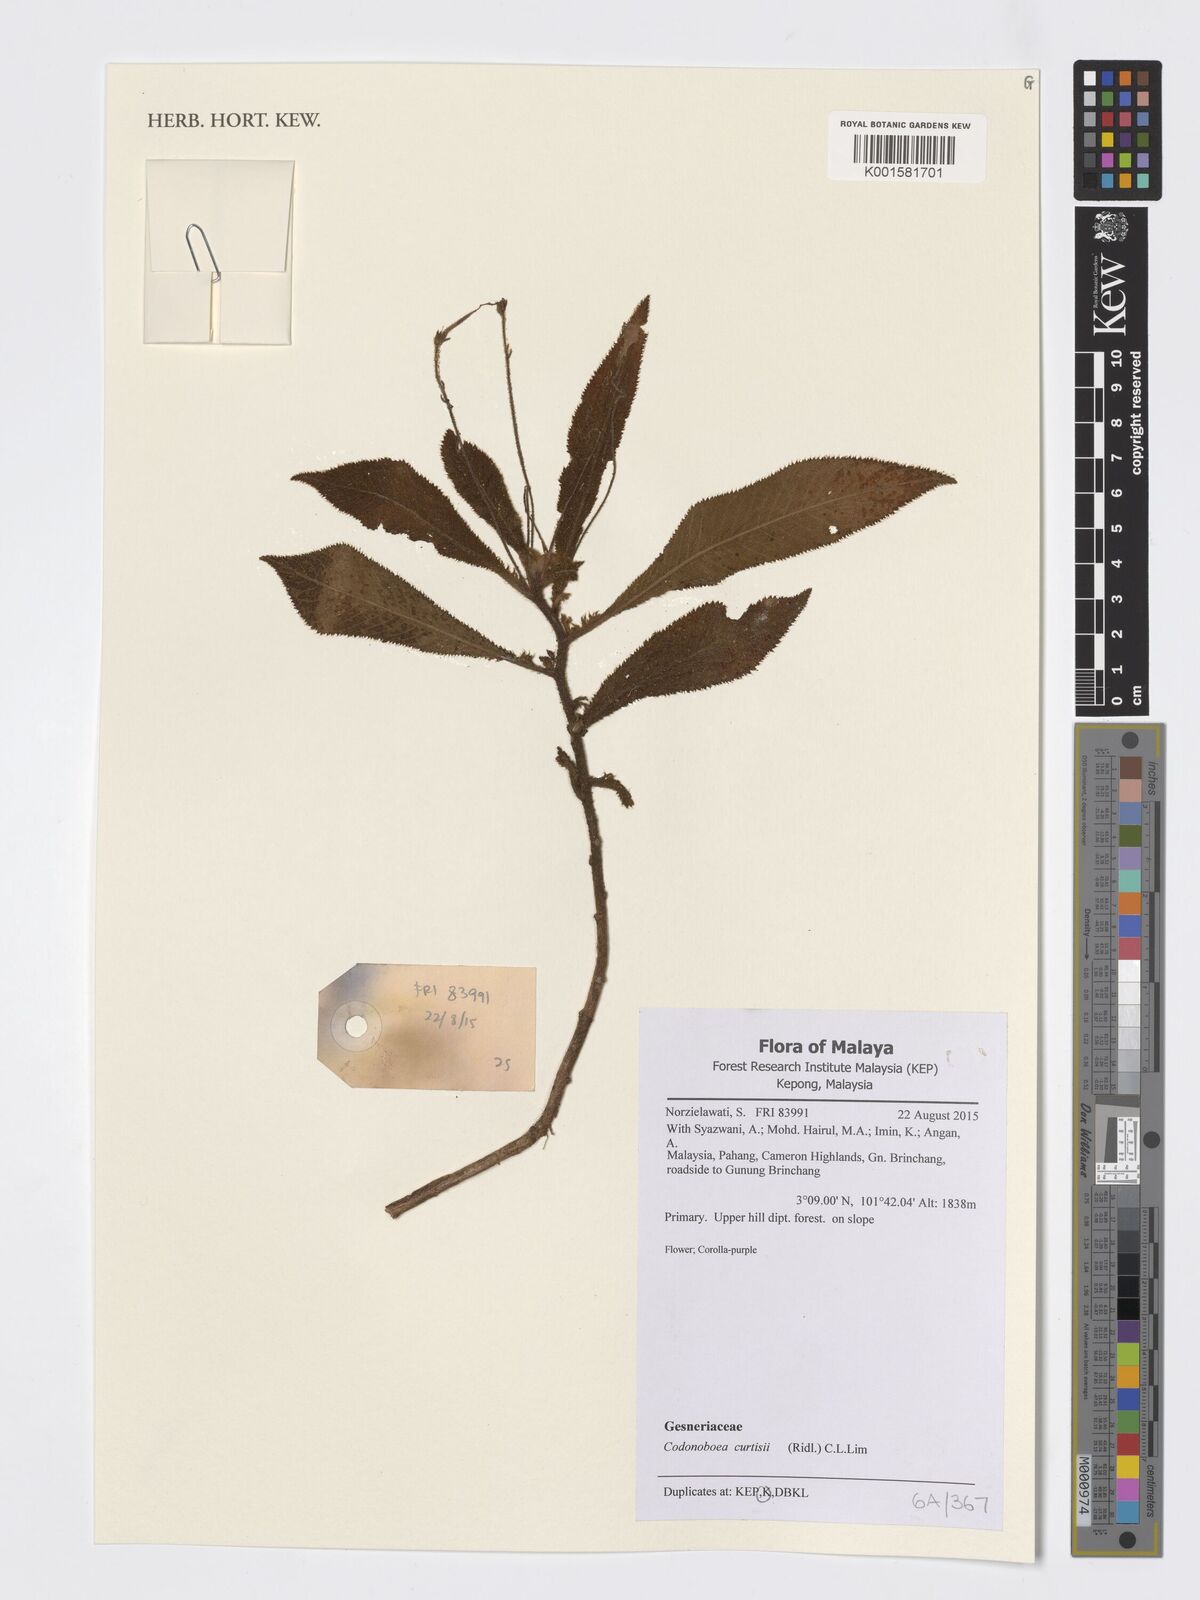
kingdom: Plantae
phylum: Tracheophyta
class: Magnoliopsida
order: Lamiales
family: Gesneriaceae
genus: Codonoboea
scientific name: Codonoboea curtisii
